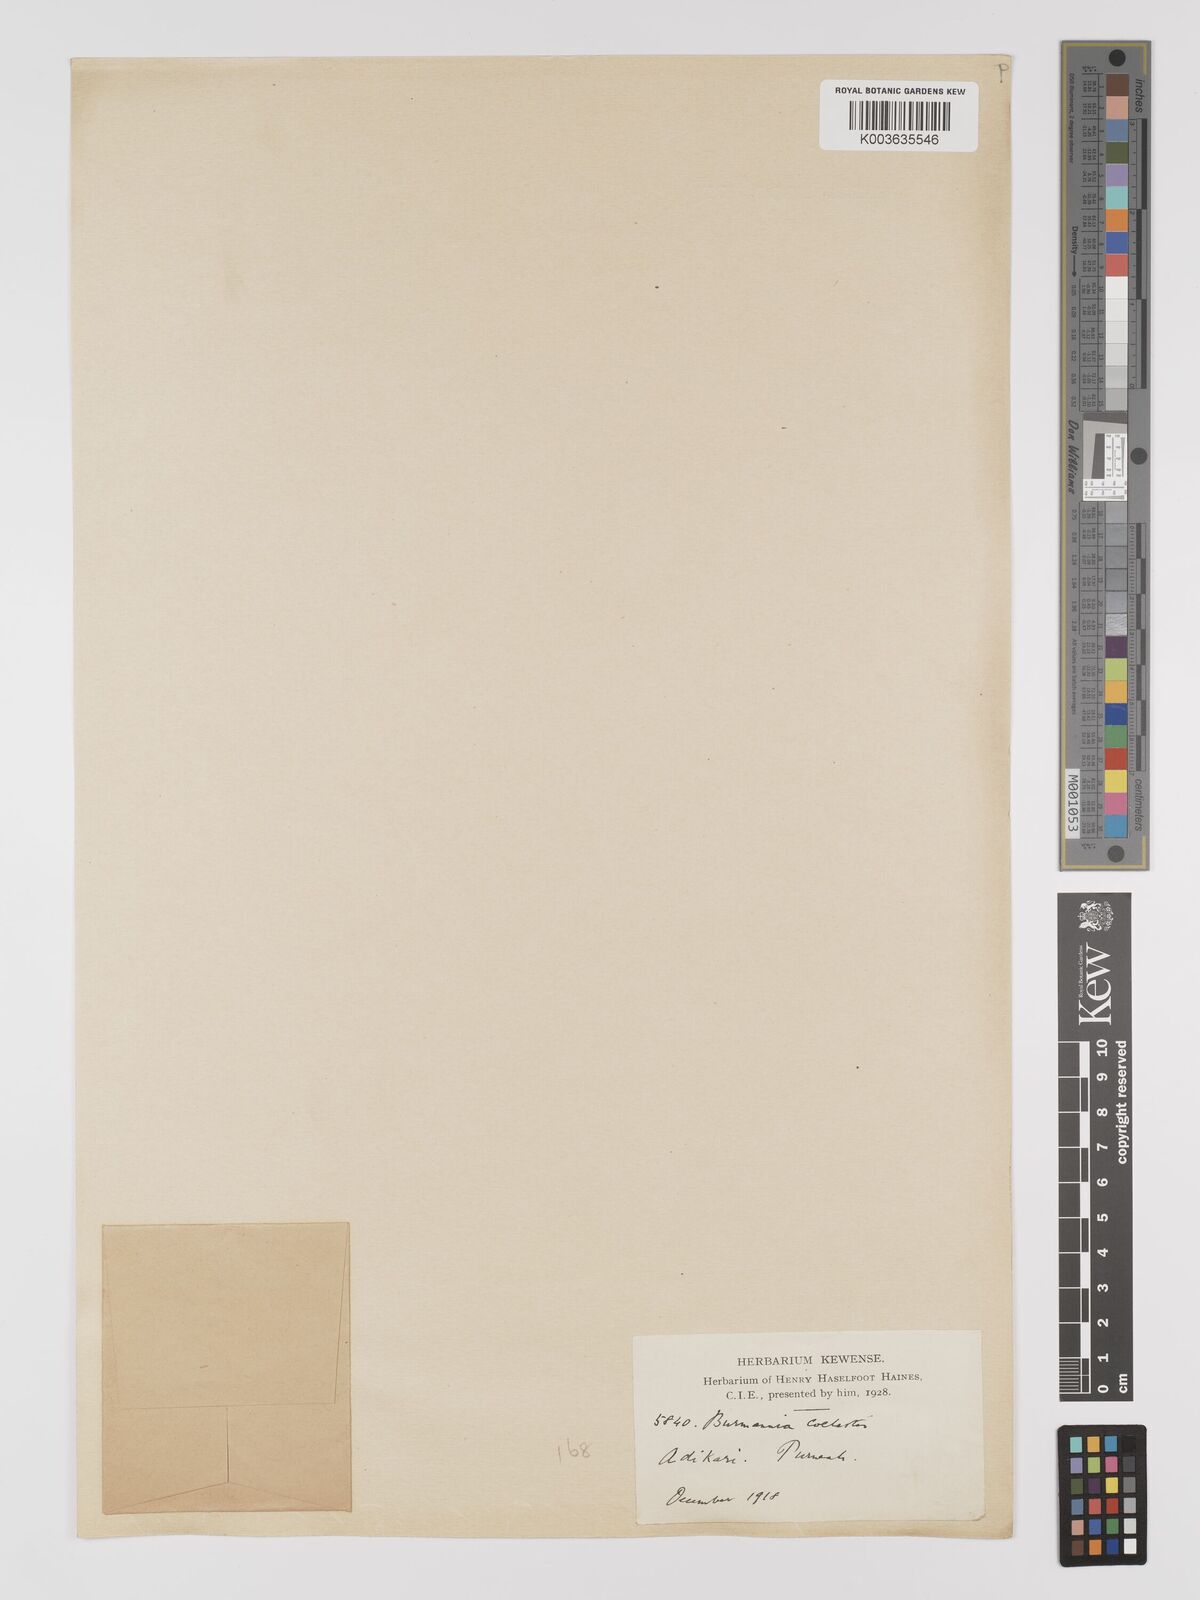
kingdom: Plantae
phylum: Tracheophyta
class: Liliopsida
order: Dioscoreales
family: Burmanniaceae
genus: Burmannia
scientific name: Burmannia coelestis
